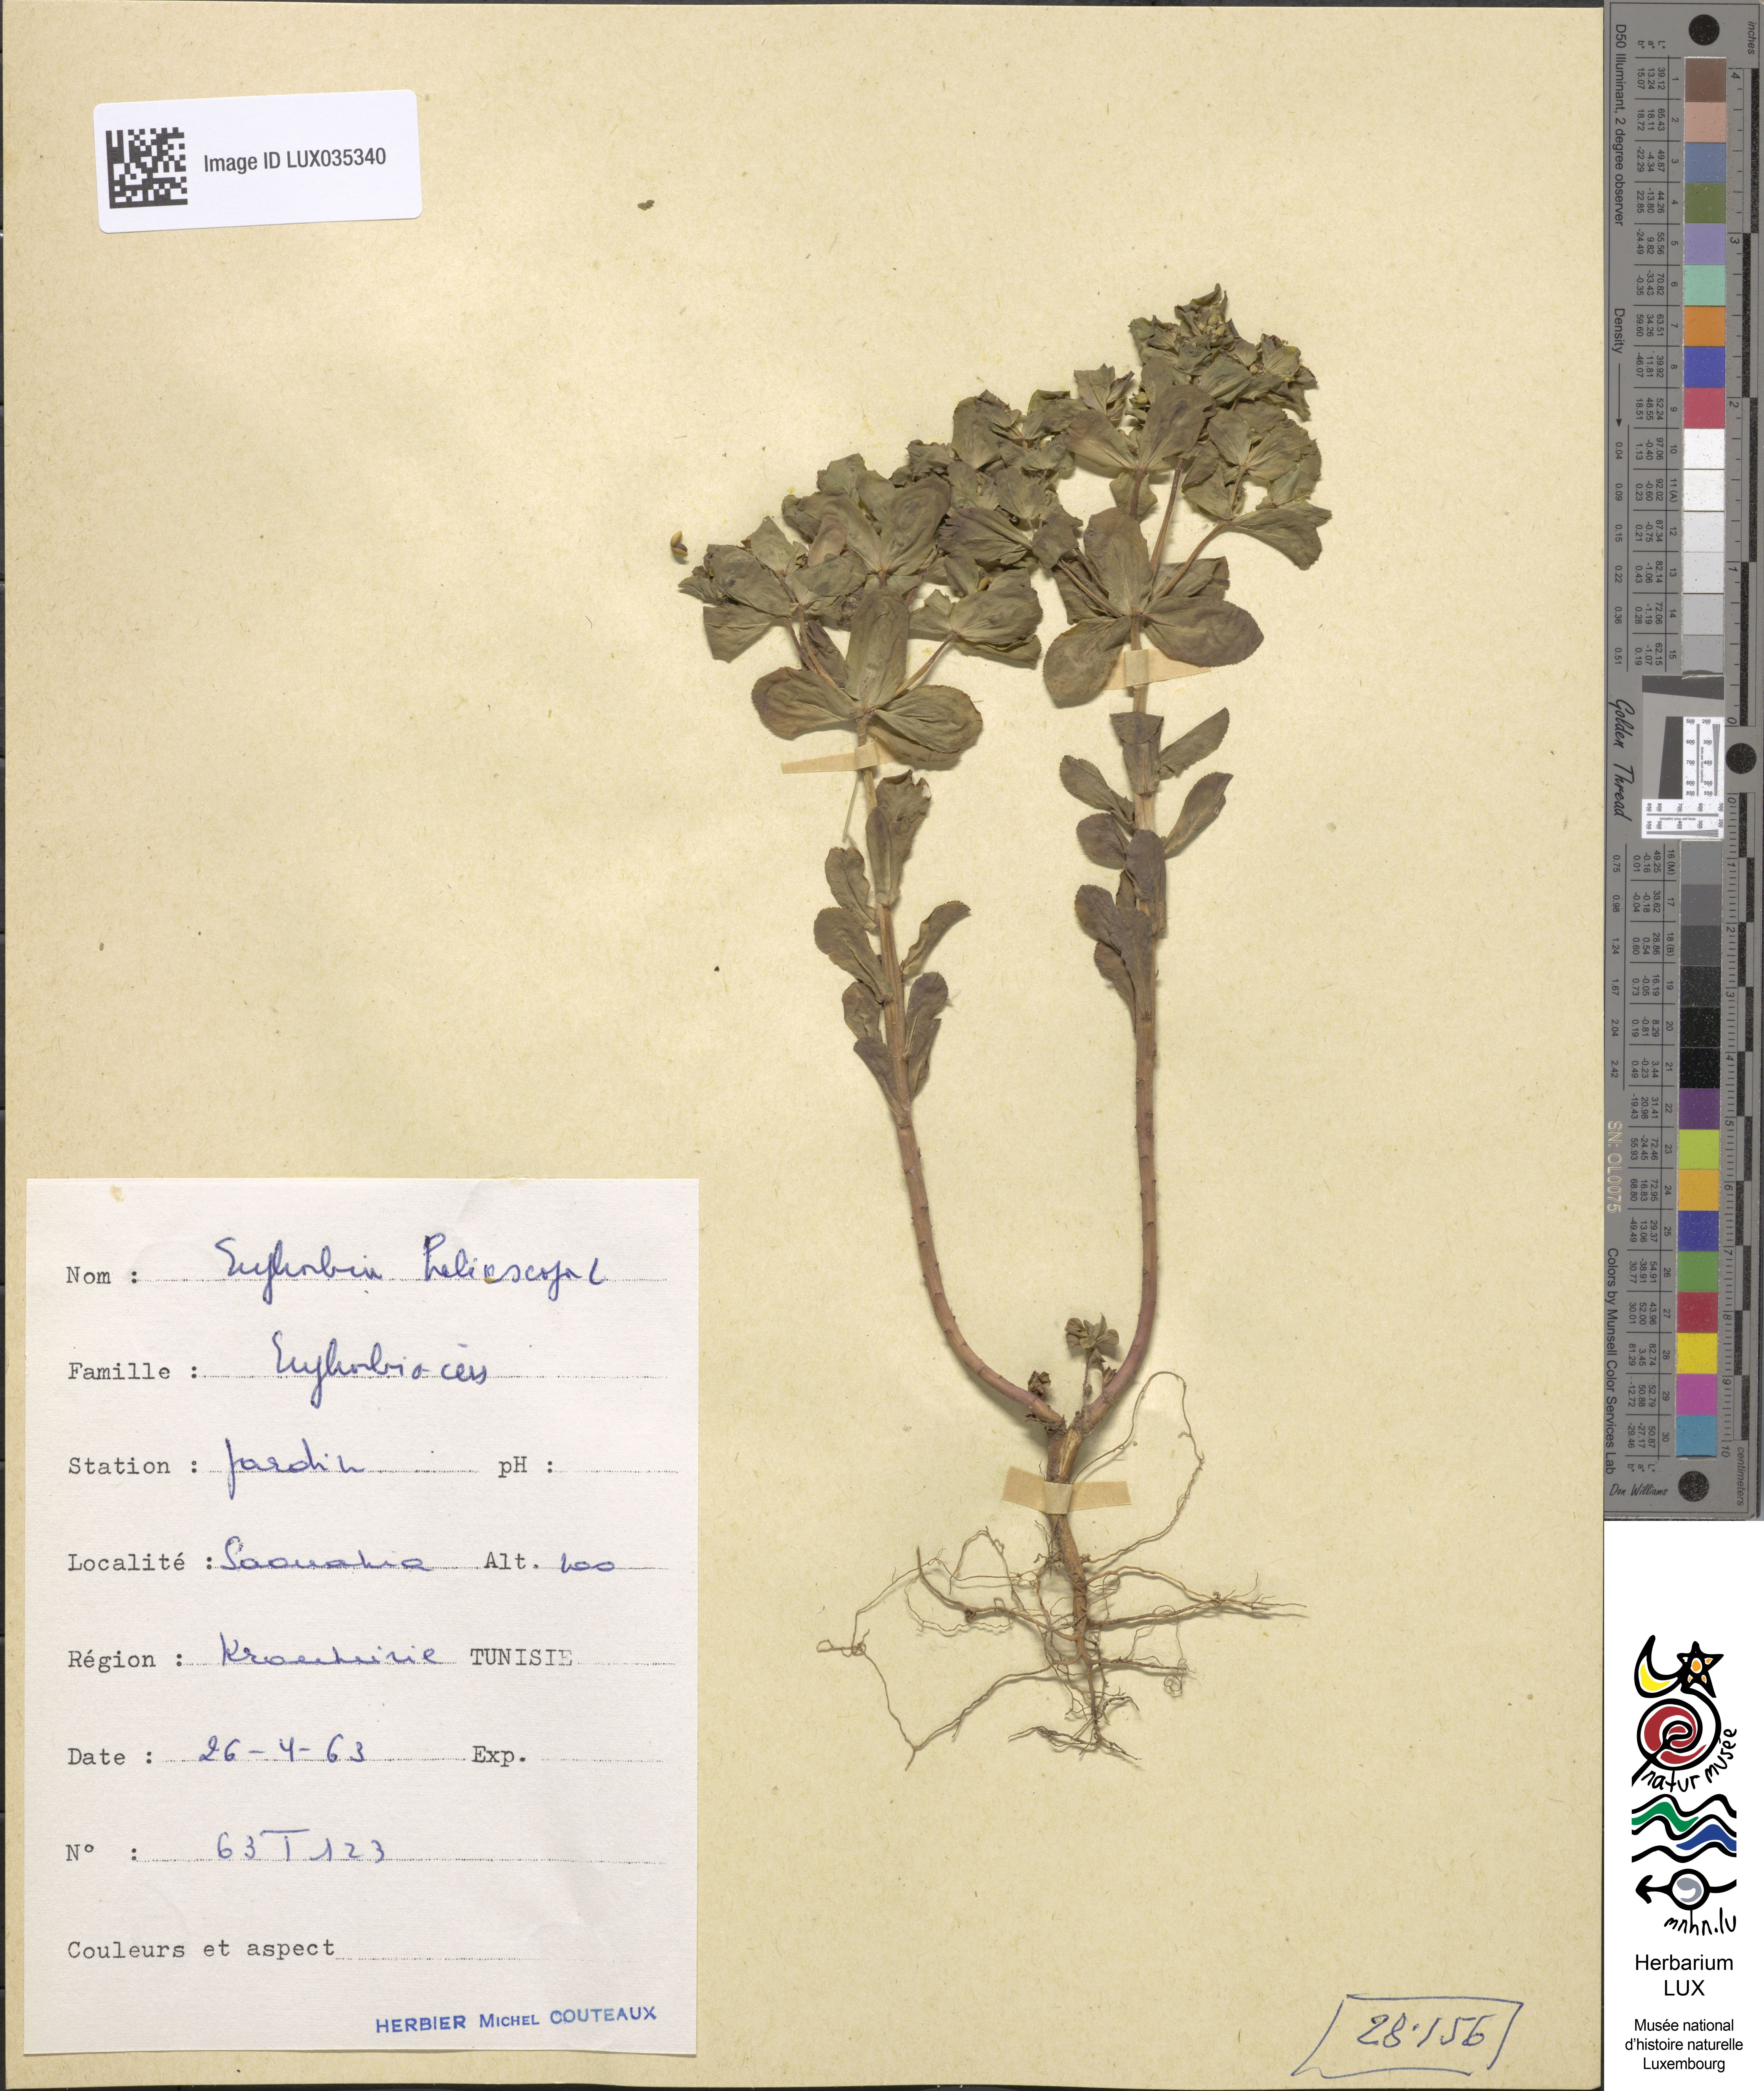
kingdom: Plantae
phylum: Tracheophyta
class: Magnoliopsida
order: Malpighiales
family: Euphorbiaceae
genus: Euphorbia
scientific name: Euphorbia helioscopia
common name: Sun spurge
